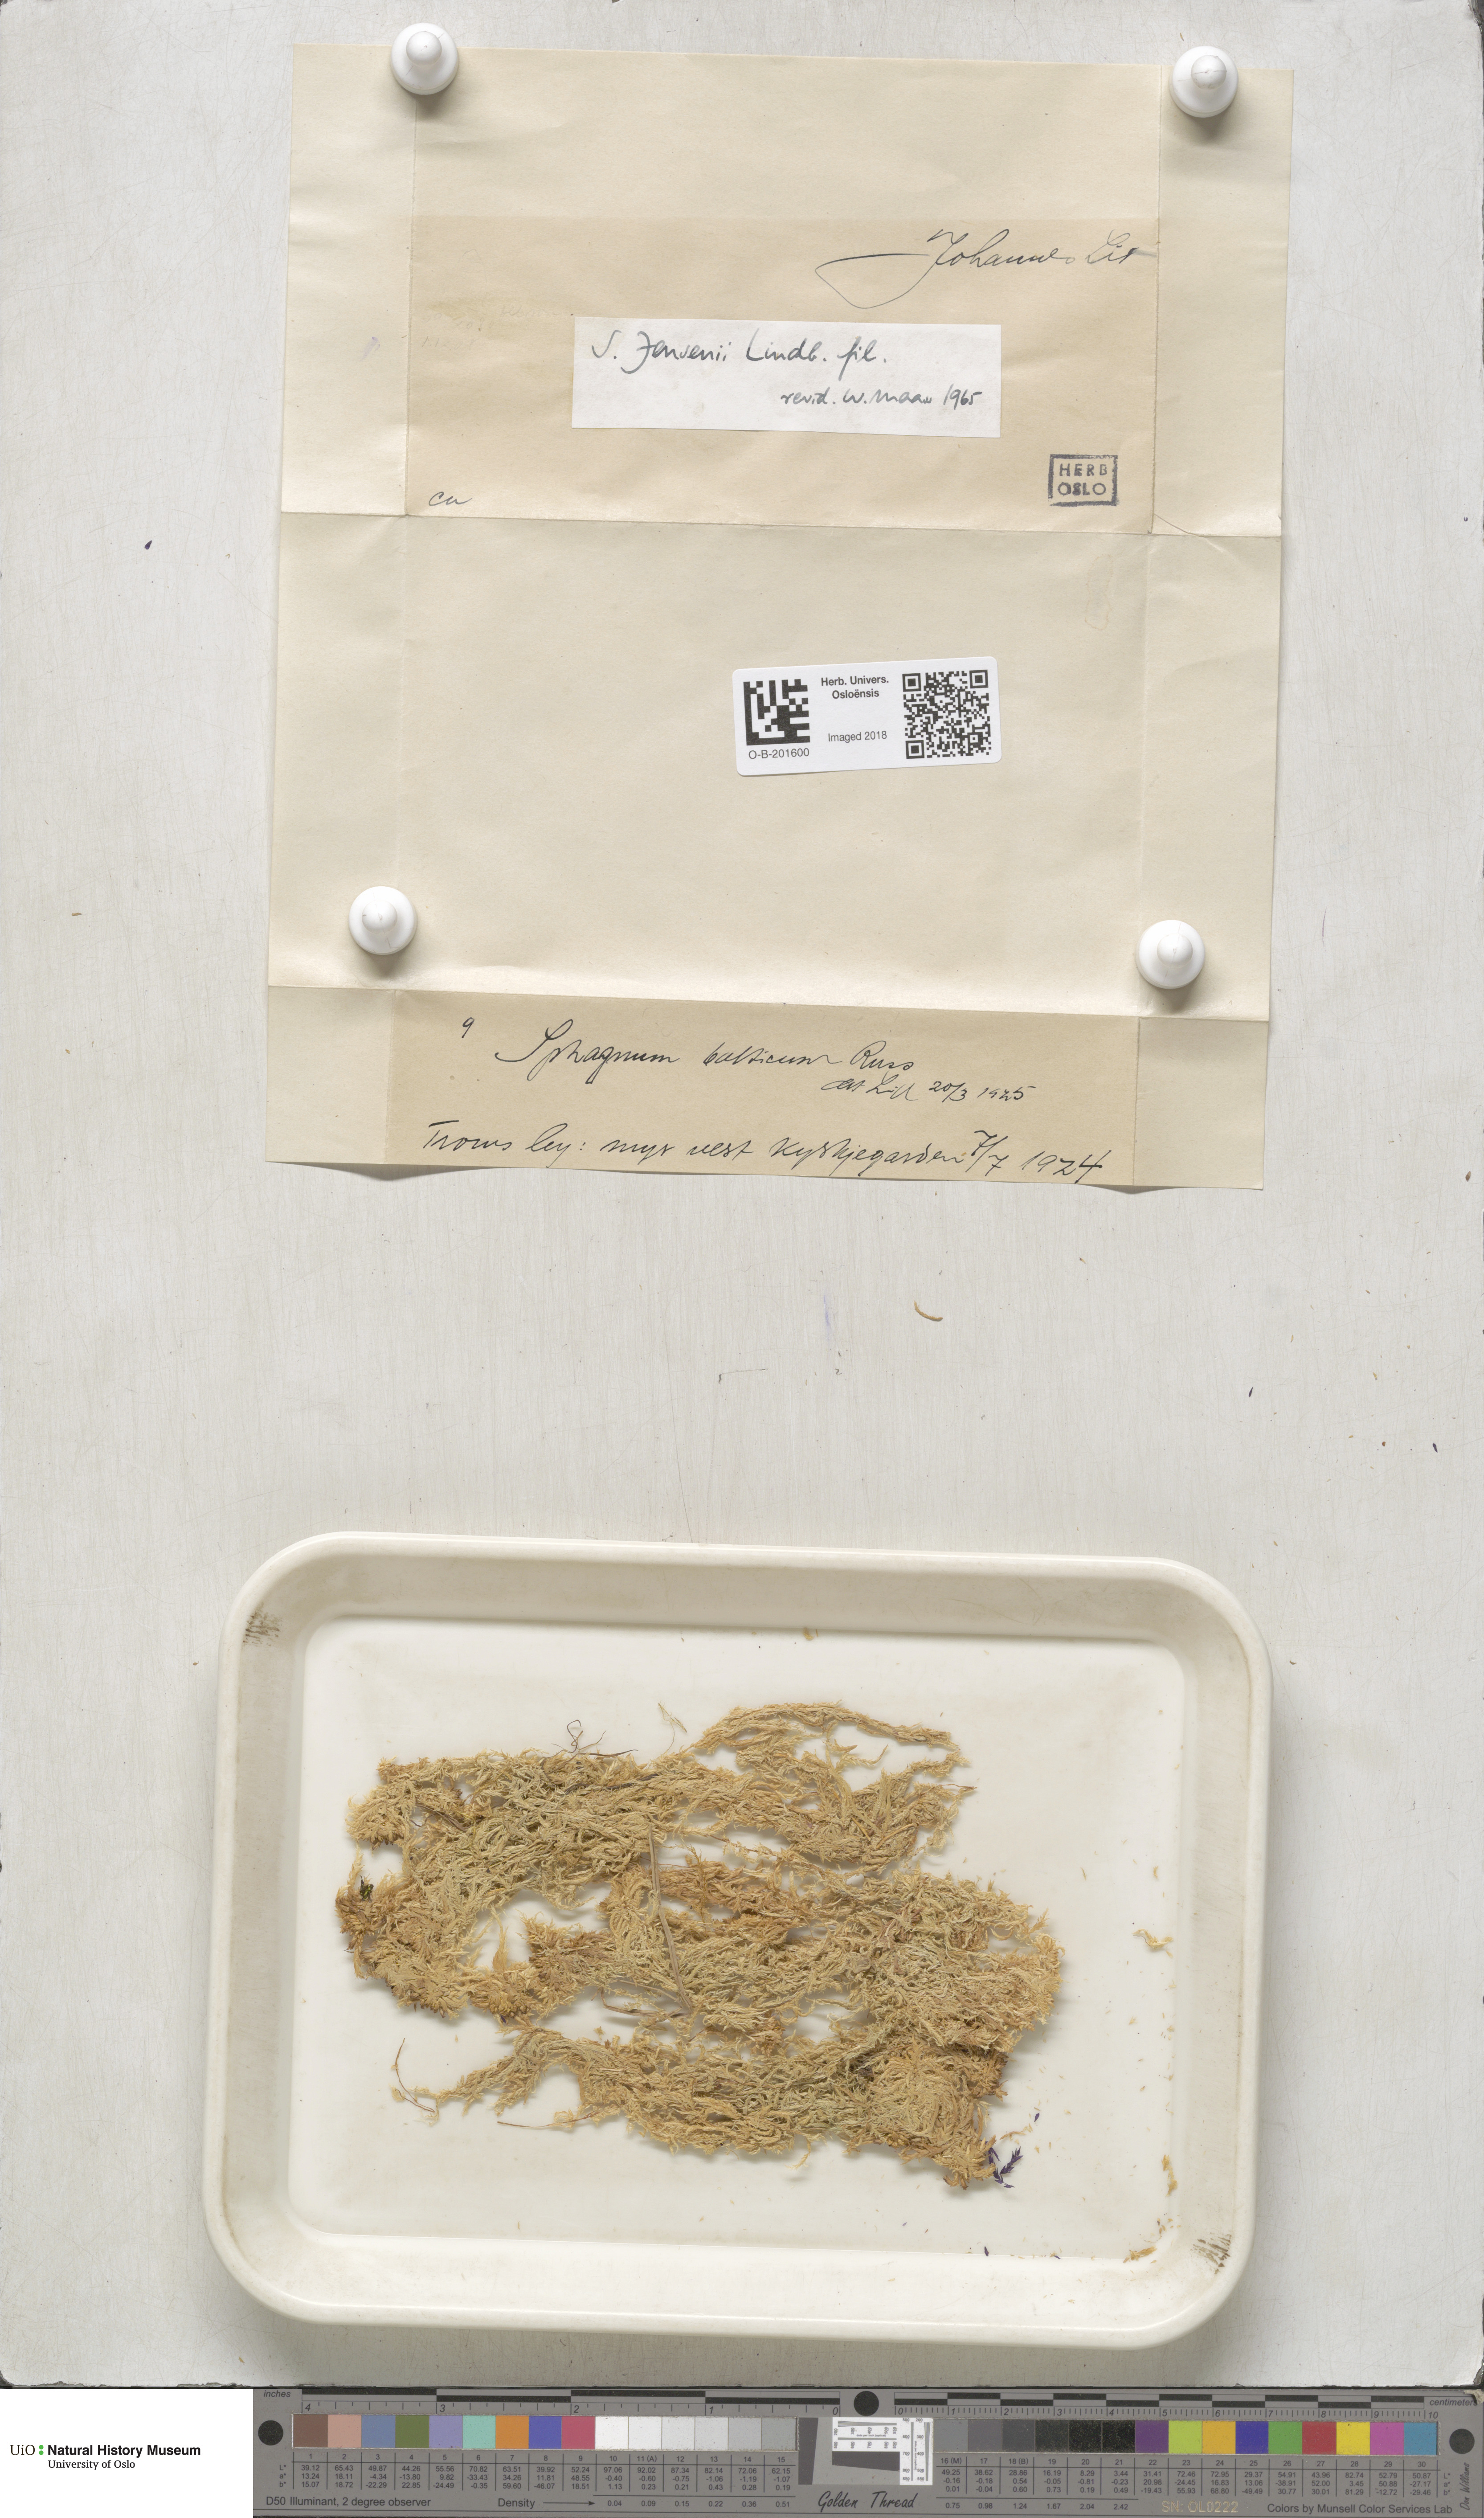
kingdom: Plantae
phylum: Bryophyta
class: Sphagnopsida
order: Sphagnales
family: Sphagnaceae
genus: Sphagnum
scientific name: Sphagnum jensenii
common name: Jensen's peat moss
